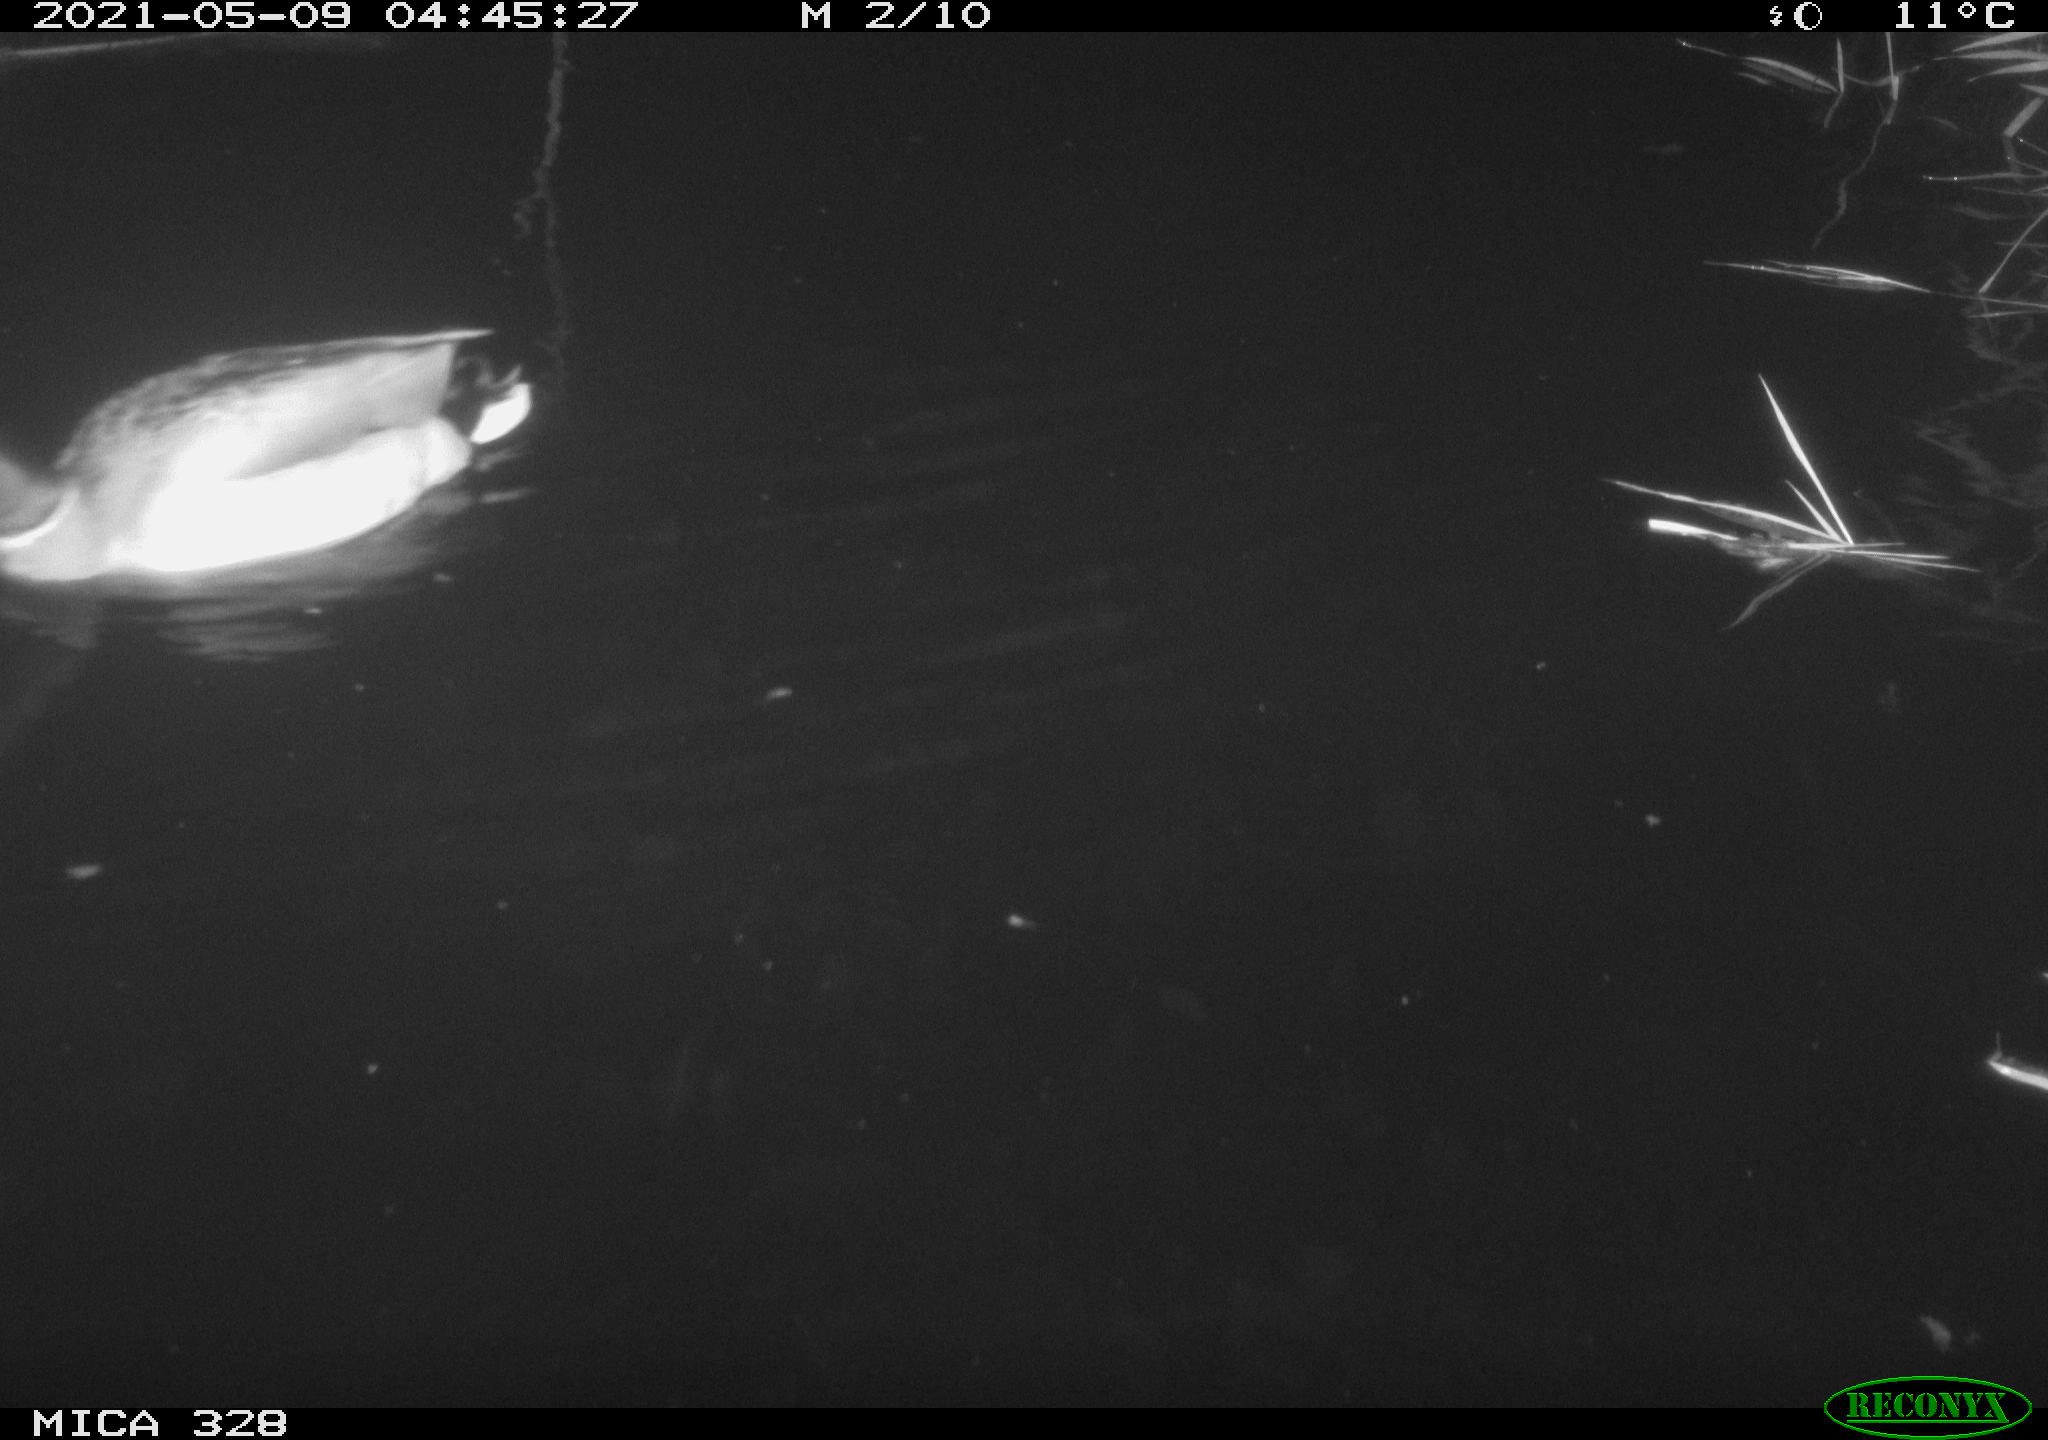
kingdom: Animalia
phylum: Chordata
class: Aves
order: Anseriformes
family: Anatidae
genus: Anas
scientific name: Anas platyrhynchos
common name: Mallard
